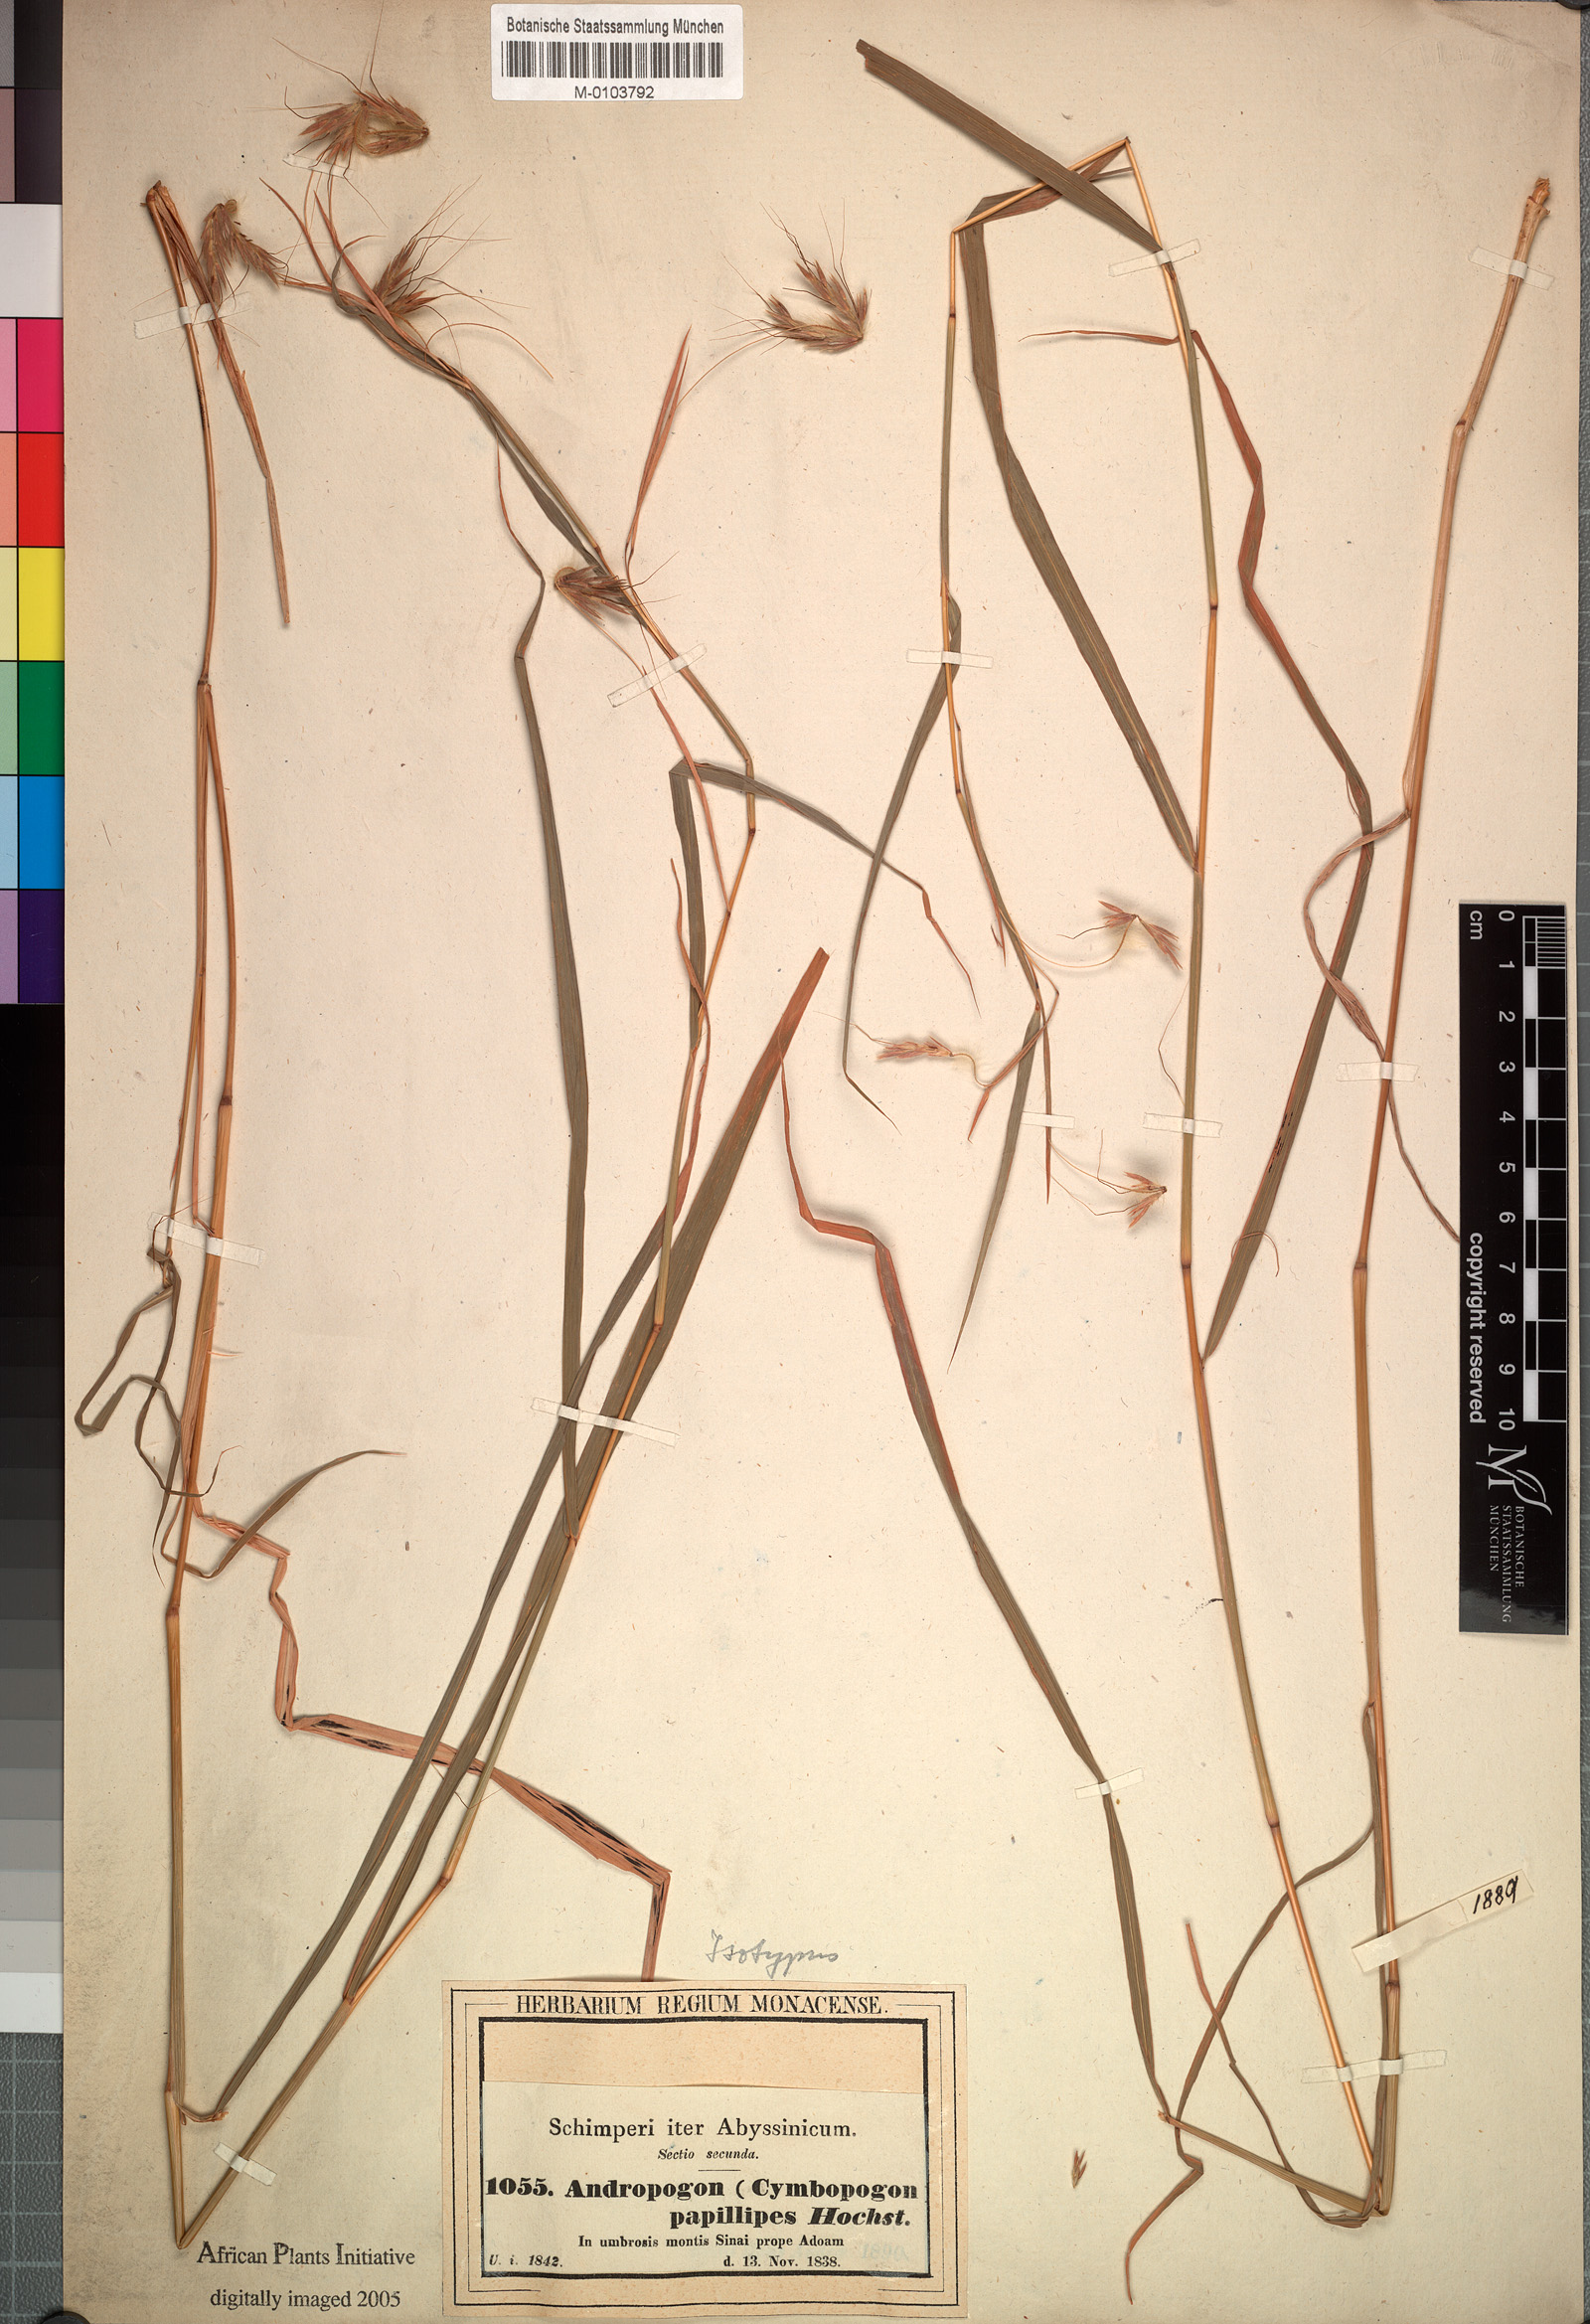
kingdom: Plantae
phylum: Tracheophyta
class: Liliopsida
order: Poales
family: Poaceae
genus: Hyparrhenia
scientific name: Hyparrhenia papillipes
